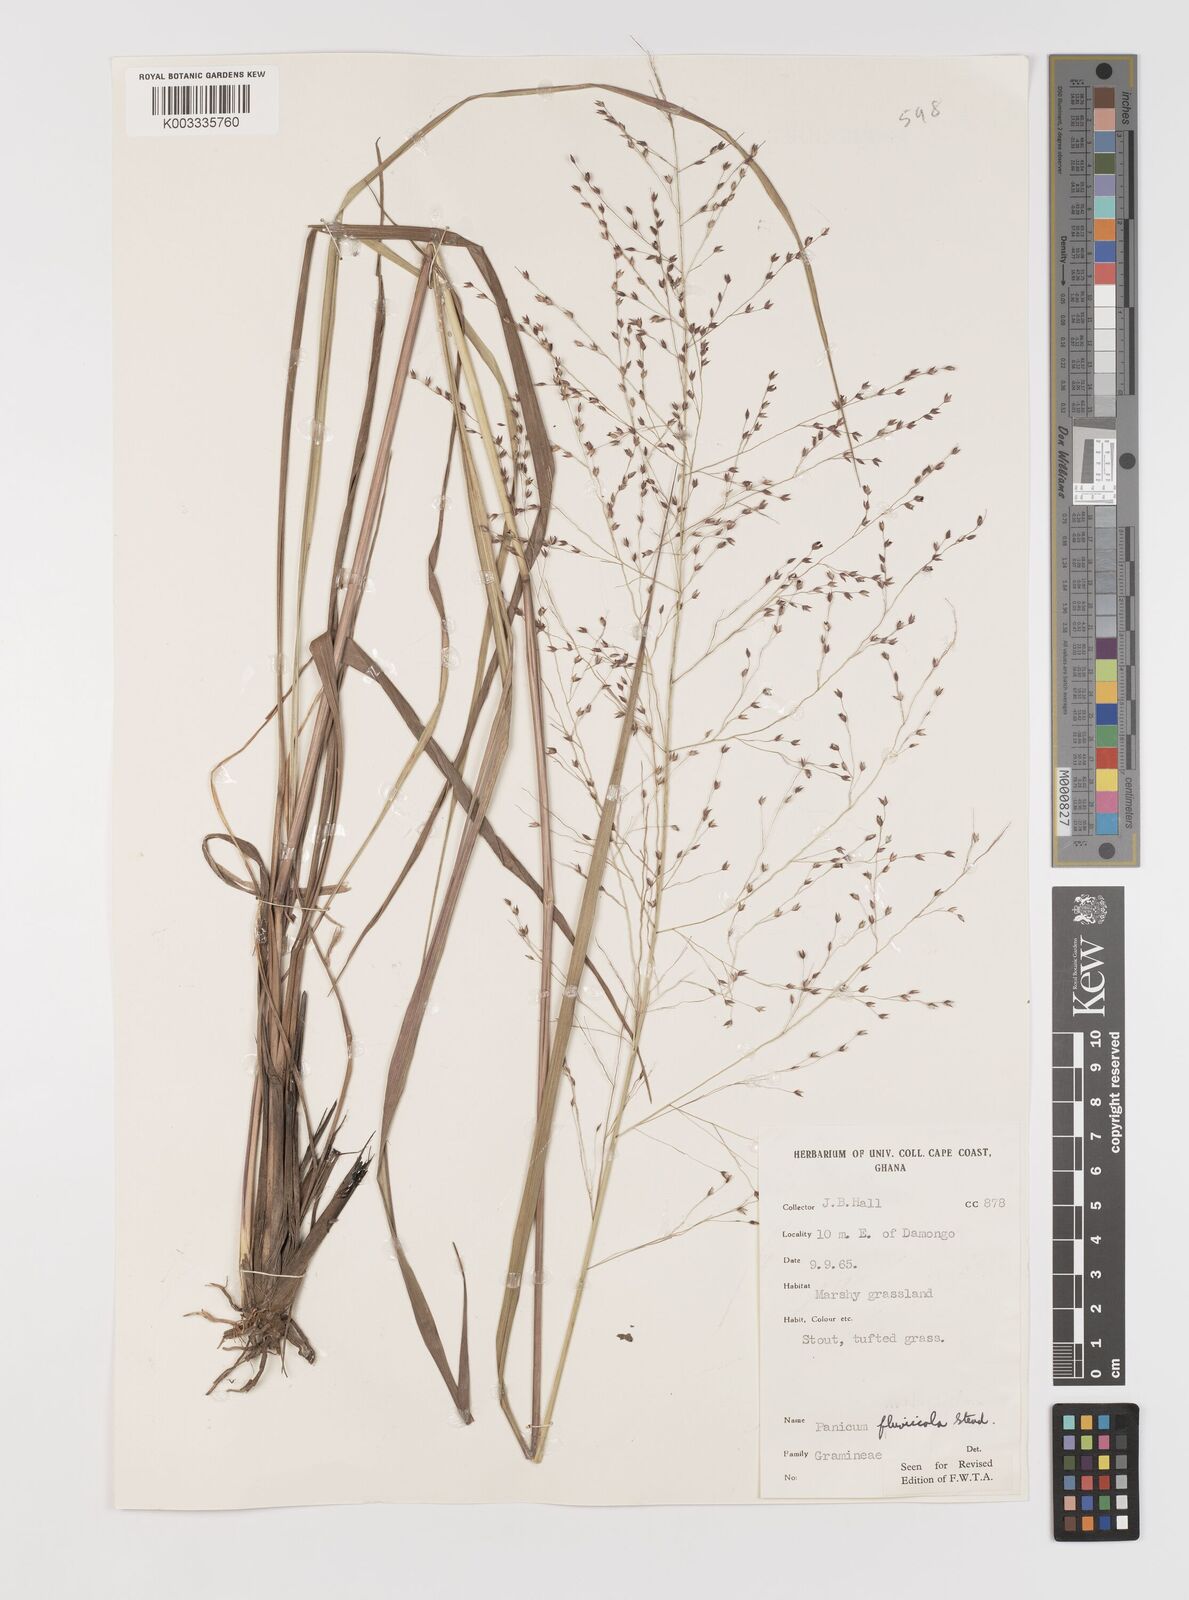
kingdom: Plantae
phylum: Tracheophyta
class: Liliopsida
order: Poales
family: Poaceae
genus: Panicum
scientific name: Panicum fluviicola
